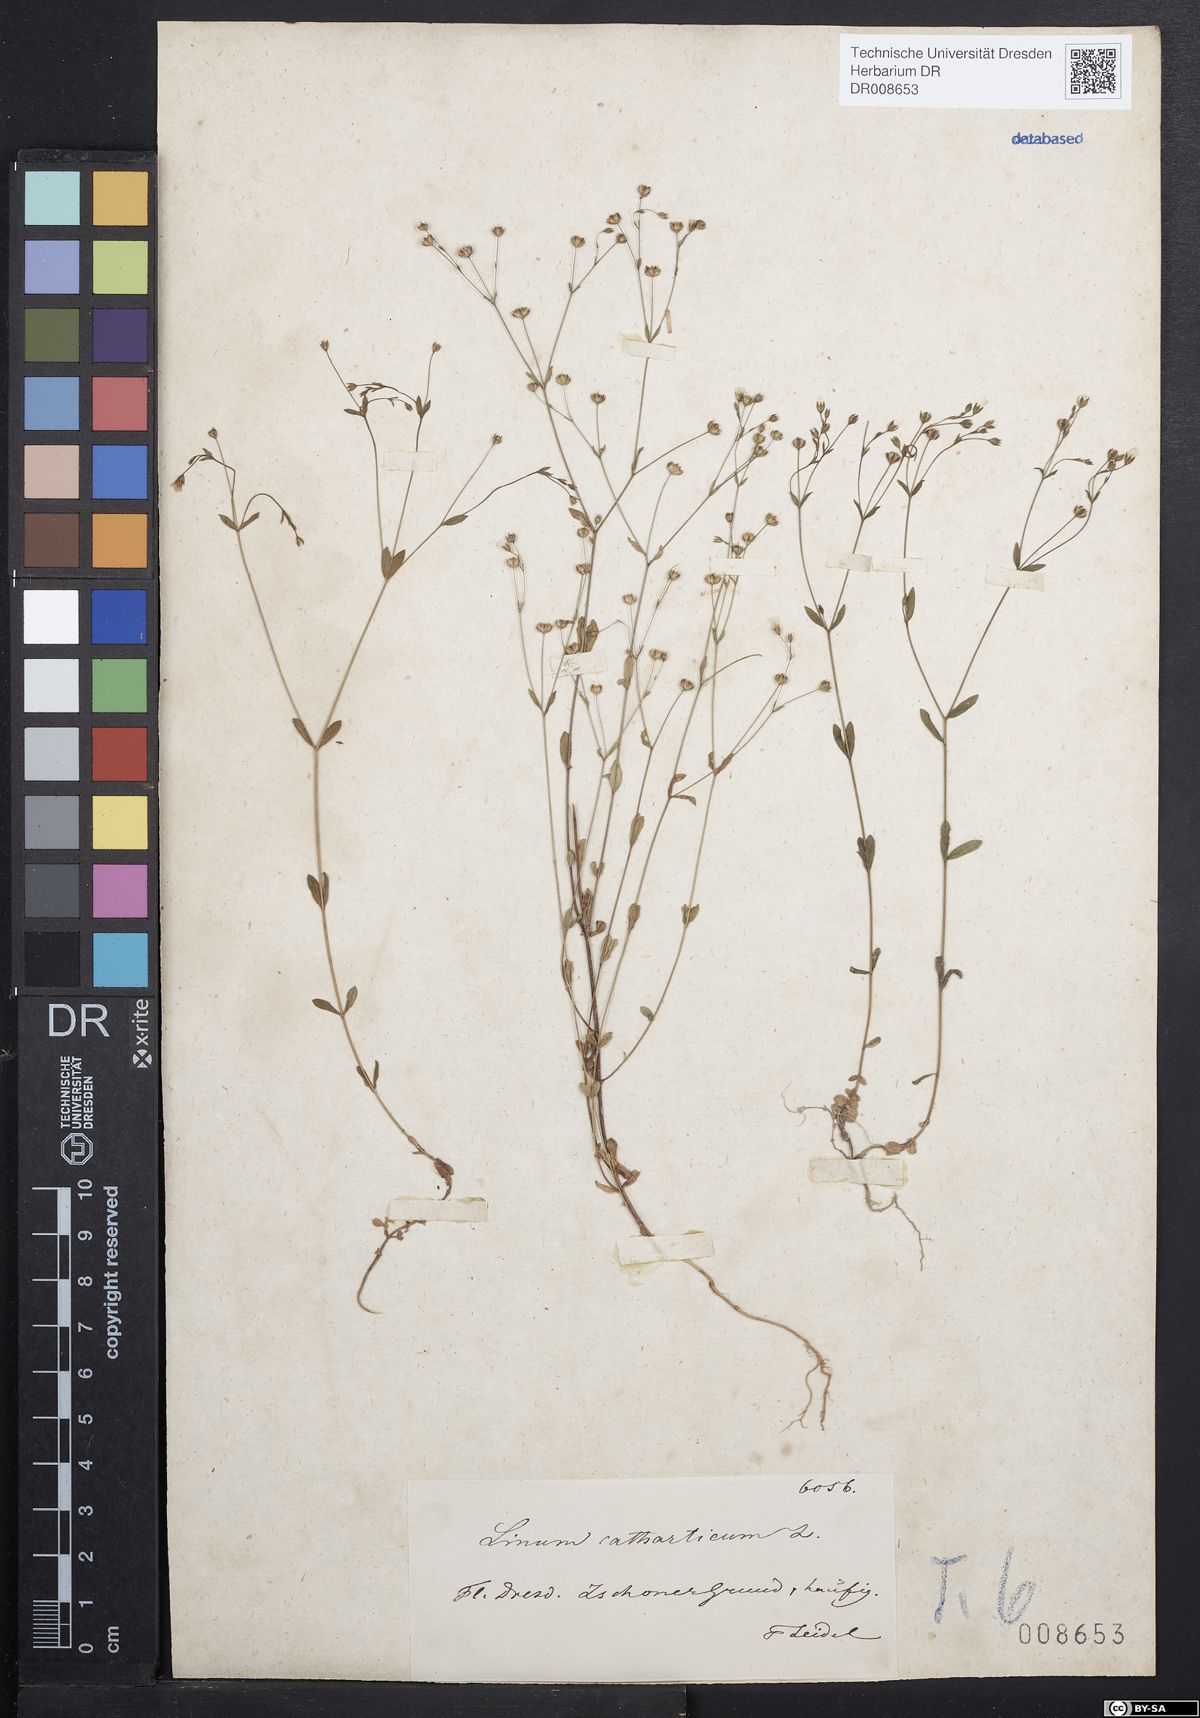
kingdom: Plantae
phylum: Tracheophyta
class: Magnoliopsida
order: Malpighiales
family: Linaceae
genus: Linum
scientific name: Linum catharticum
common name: Fairy flax
